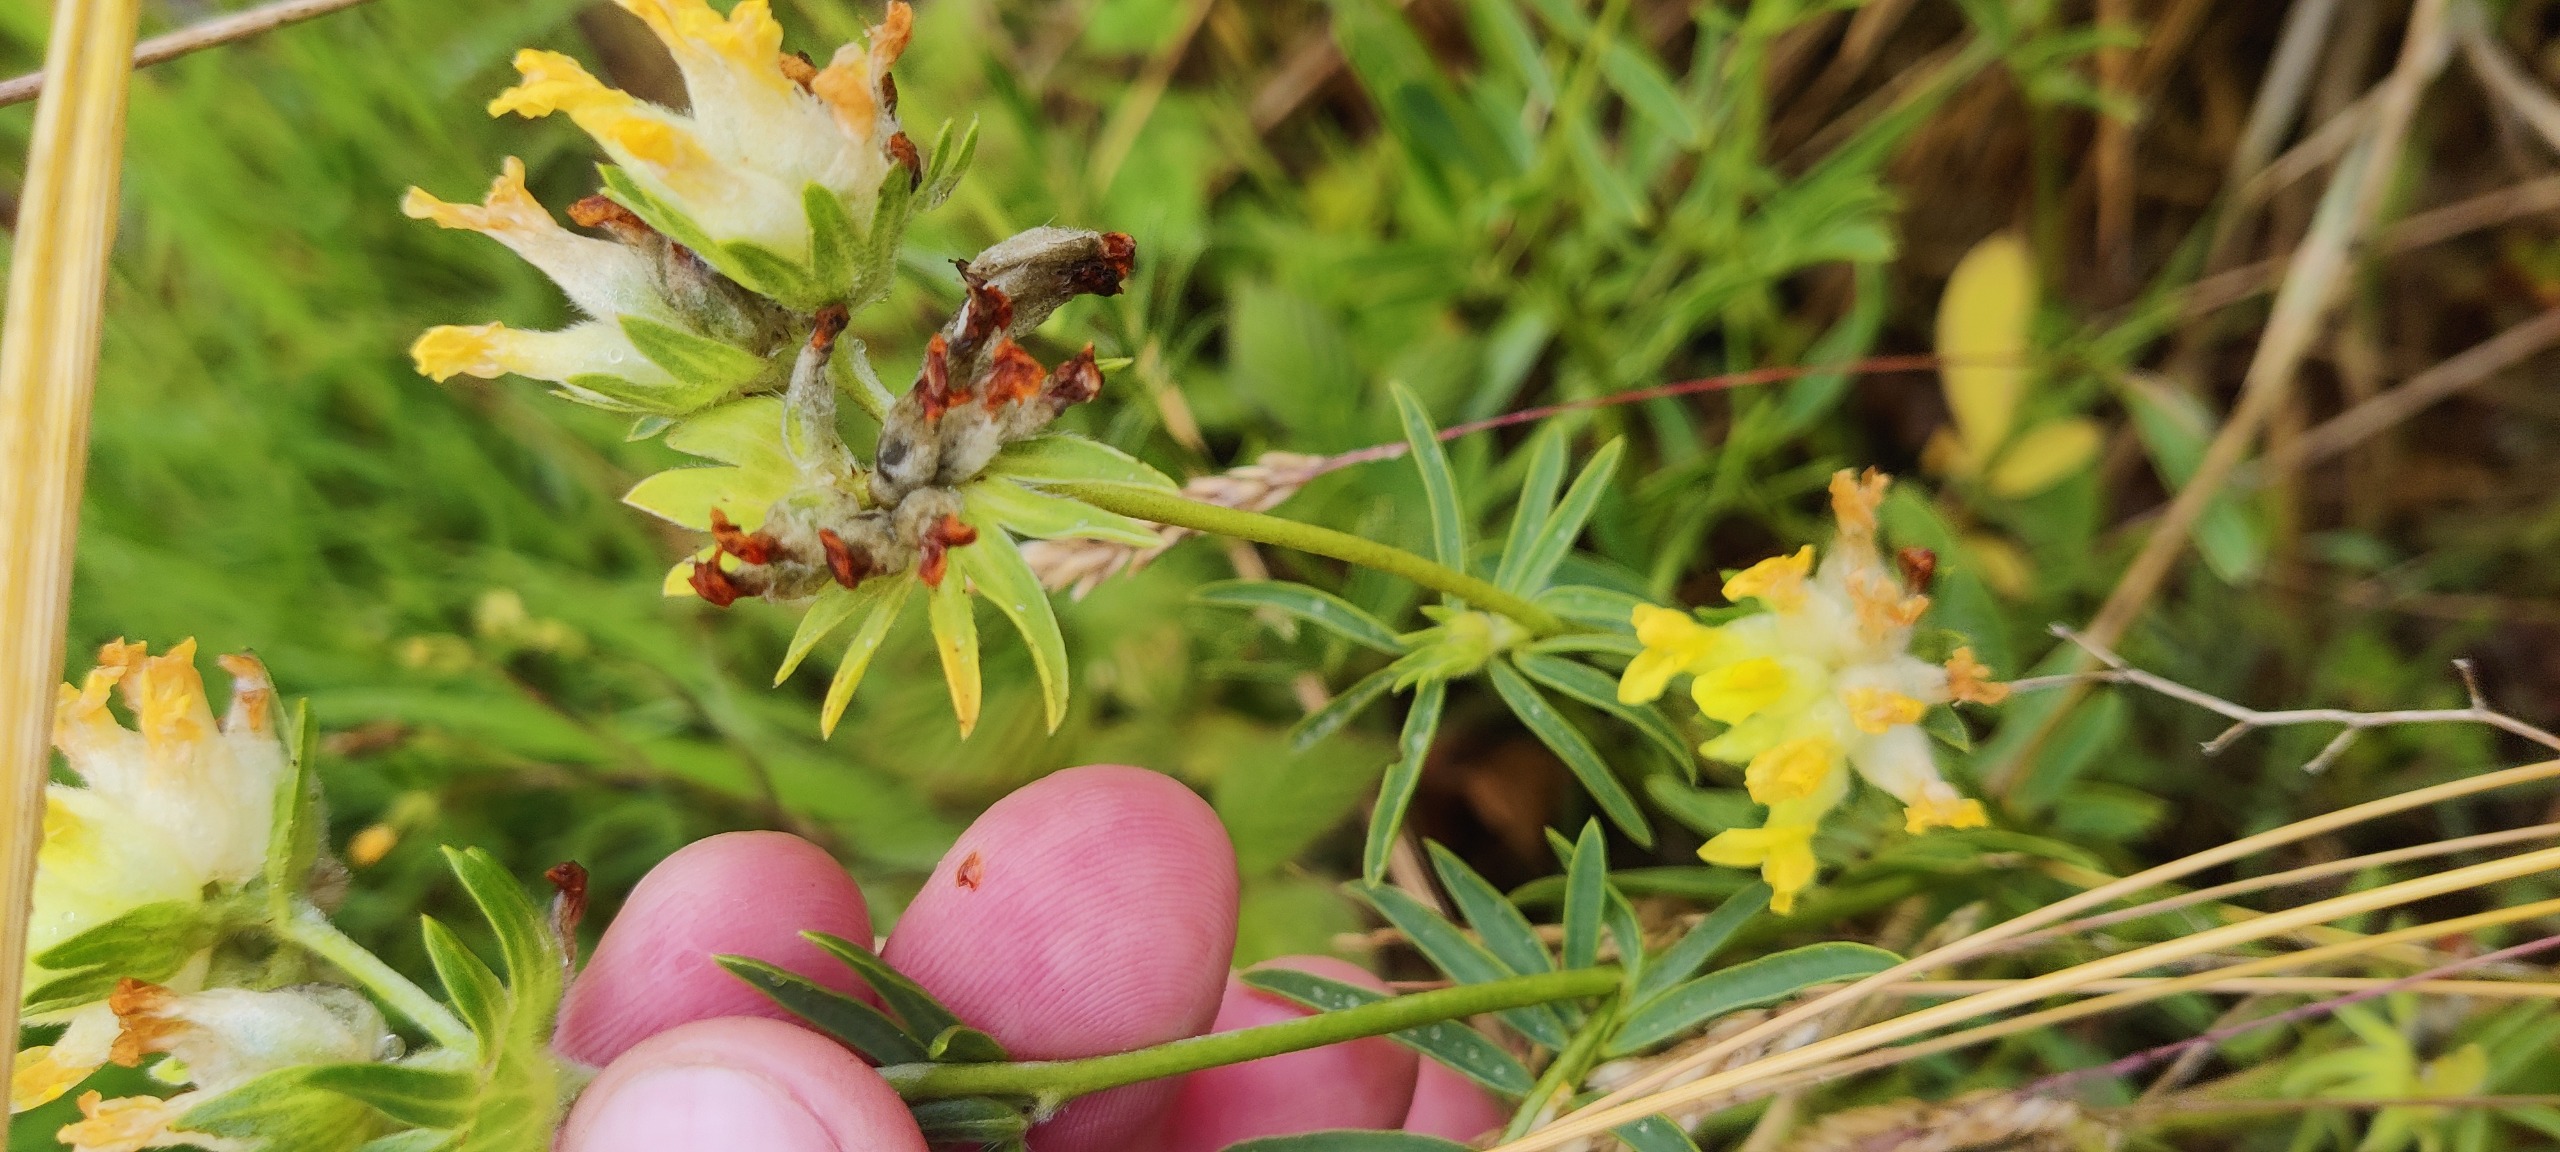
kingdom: Plantae
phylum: Tracheophyta
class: Magnoliopsida
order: Fabales
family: Fabaceae
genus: Anthyllis
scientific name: Anthyllis vulneraria
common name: Rundbælg
